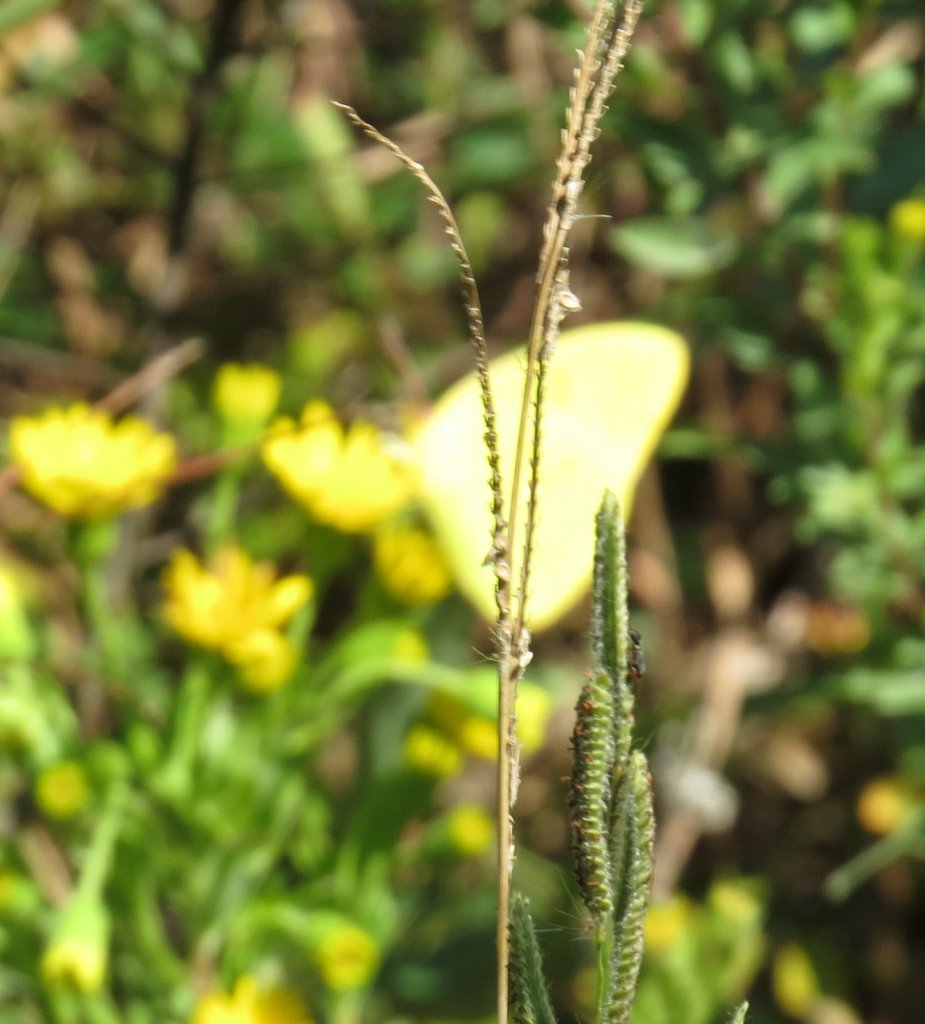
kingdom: Animalia
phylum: Arthropoda
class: Insecta
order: Lepidoptera
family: Pieridae
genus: Phoebis
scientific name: Phoebis sennae
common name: Cloudless Sulphur
